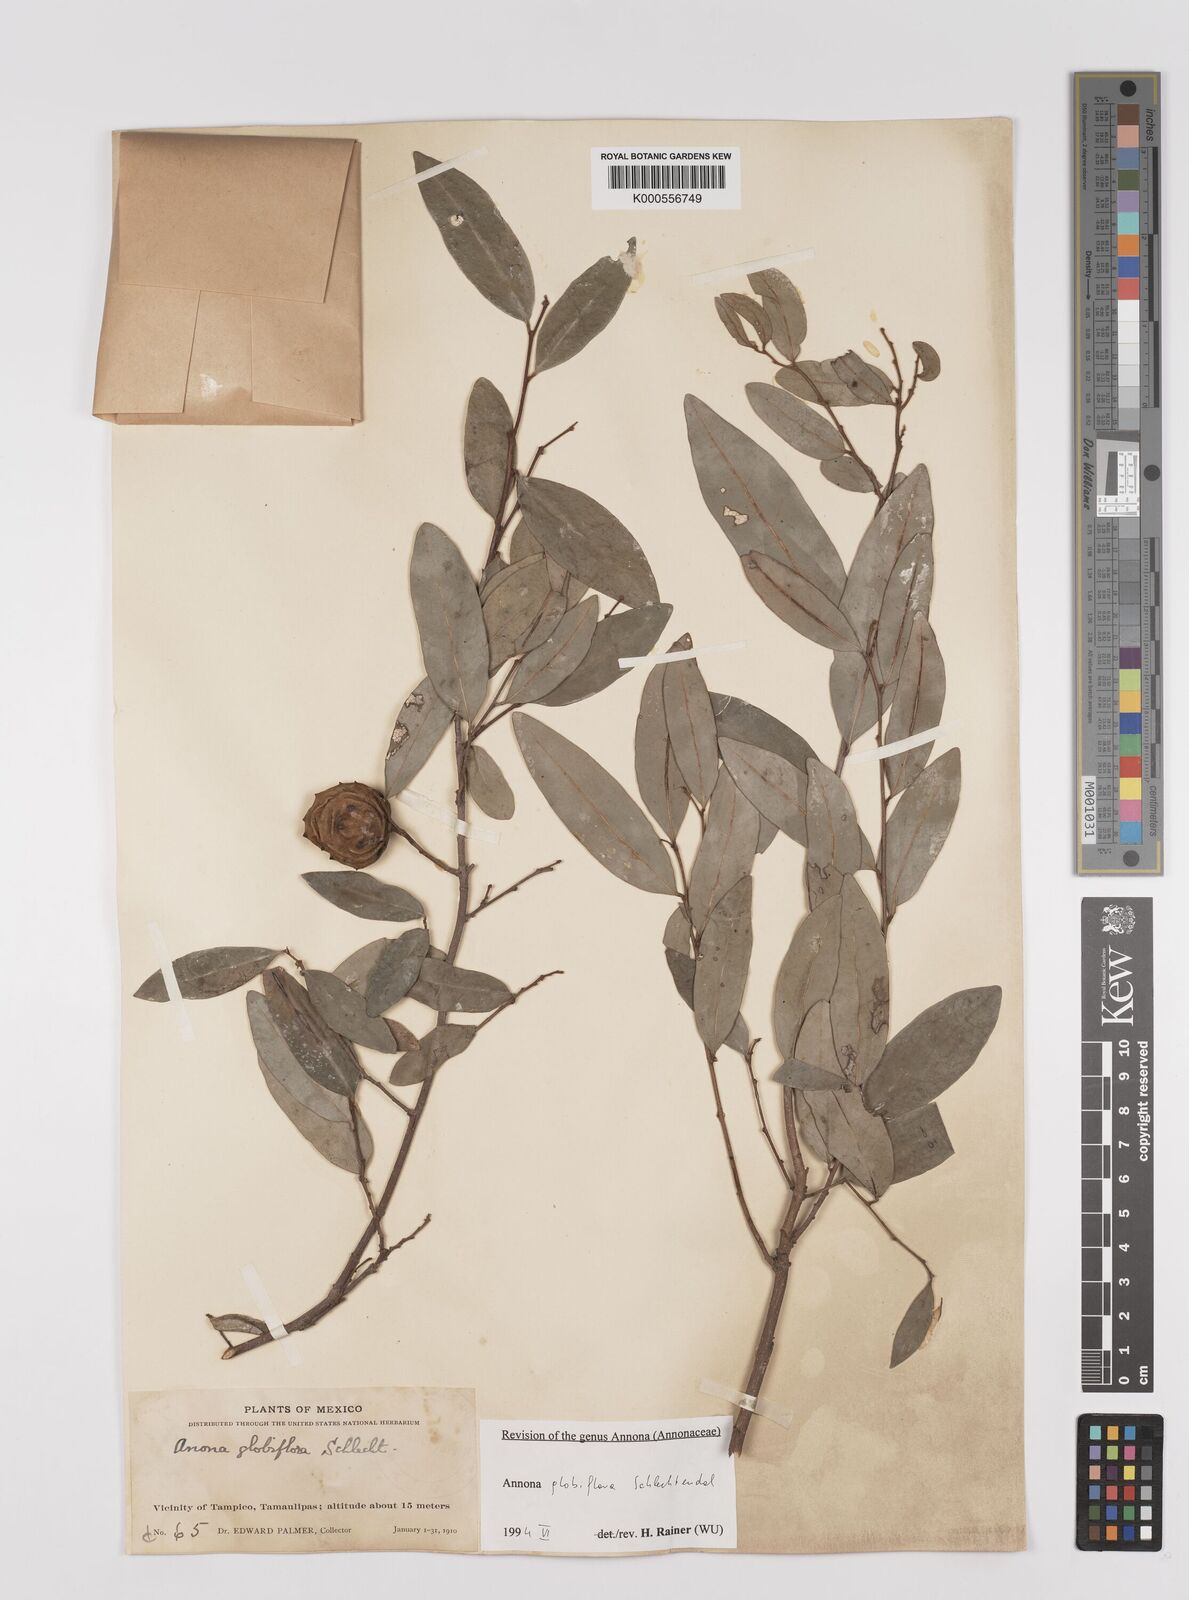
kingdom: Plantae
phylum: Tracheophyta
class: Magnoliopsida
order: Magnoliales
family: Annonaceae
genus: Annona
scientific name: Annona globiflora
